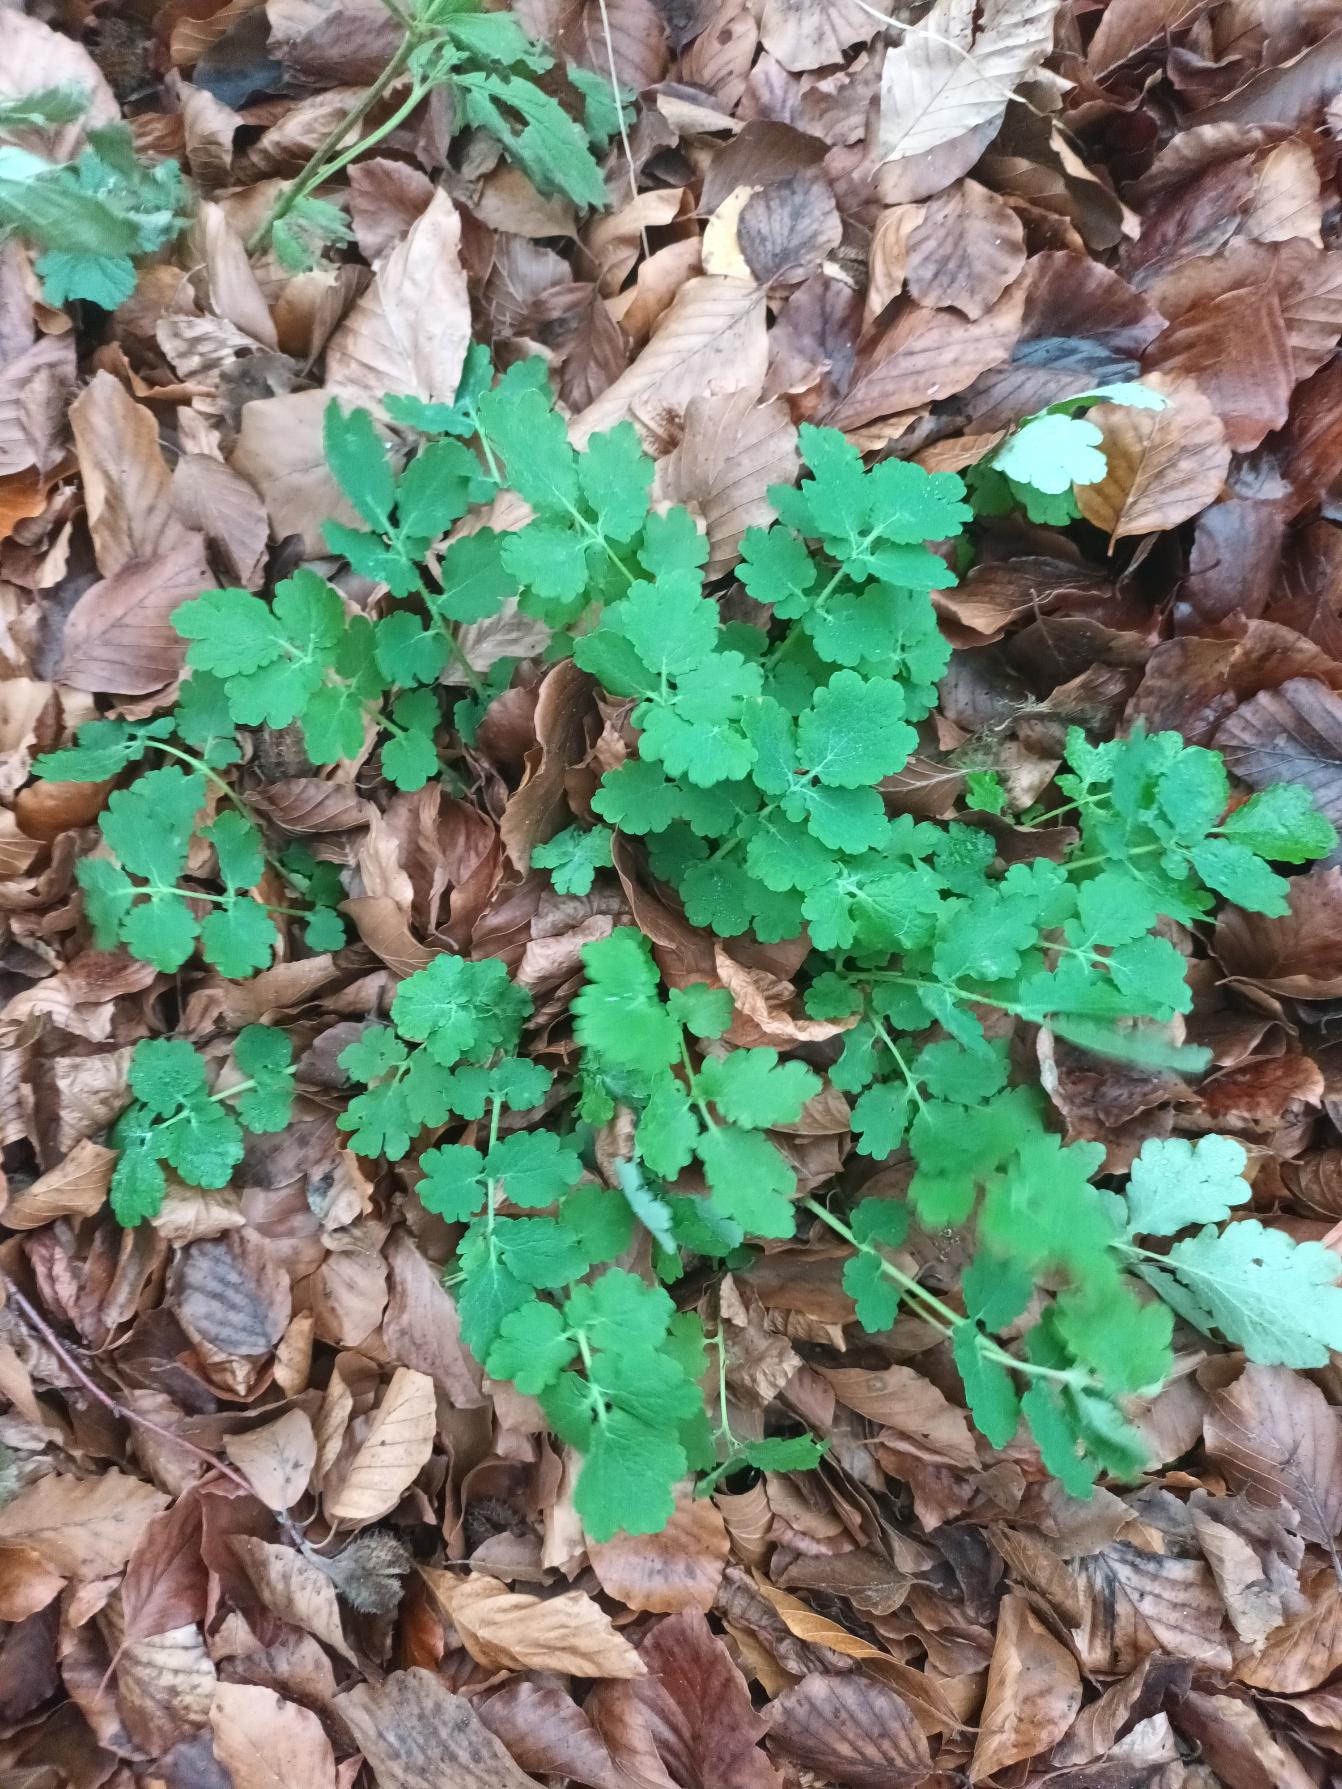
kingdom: Plantae
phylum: Tracheophyta
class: Magnoliopsida
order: Ranunculales
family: Papaveraceae
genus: Chelidonium
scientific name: Chelidonium majus
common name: Svaleurt
